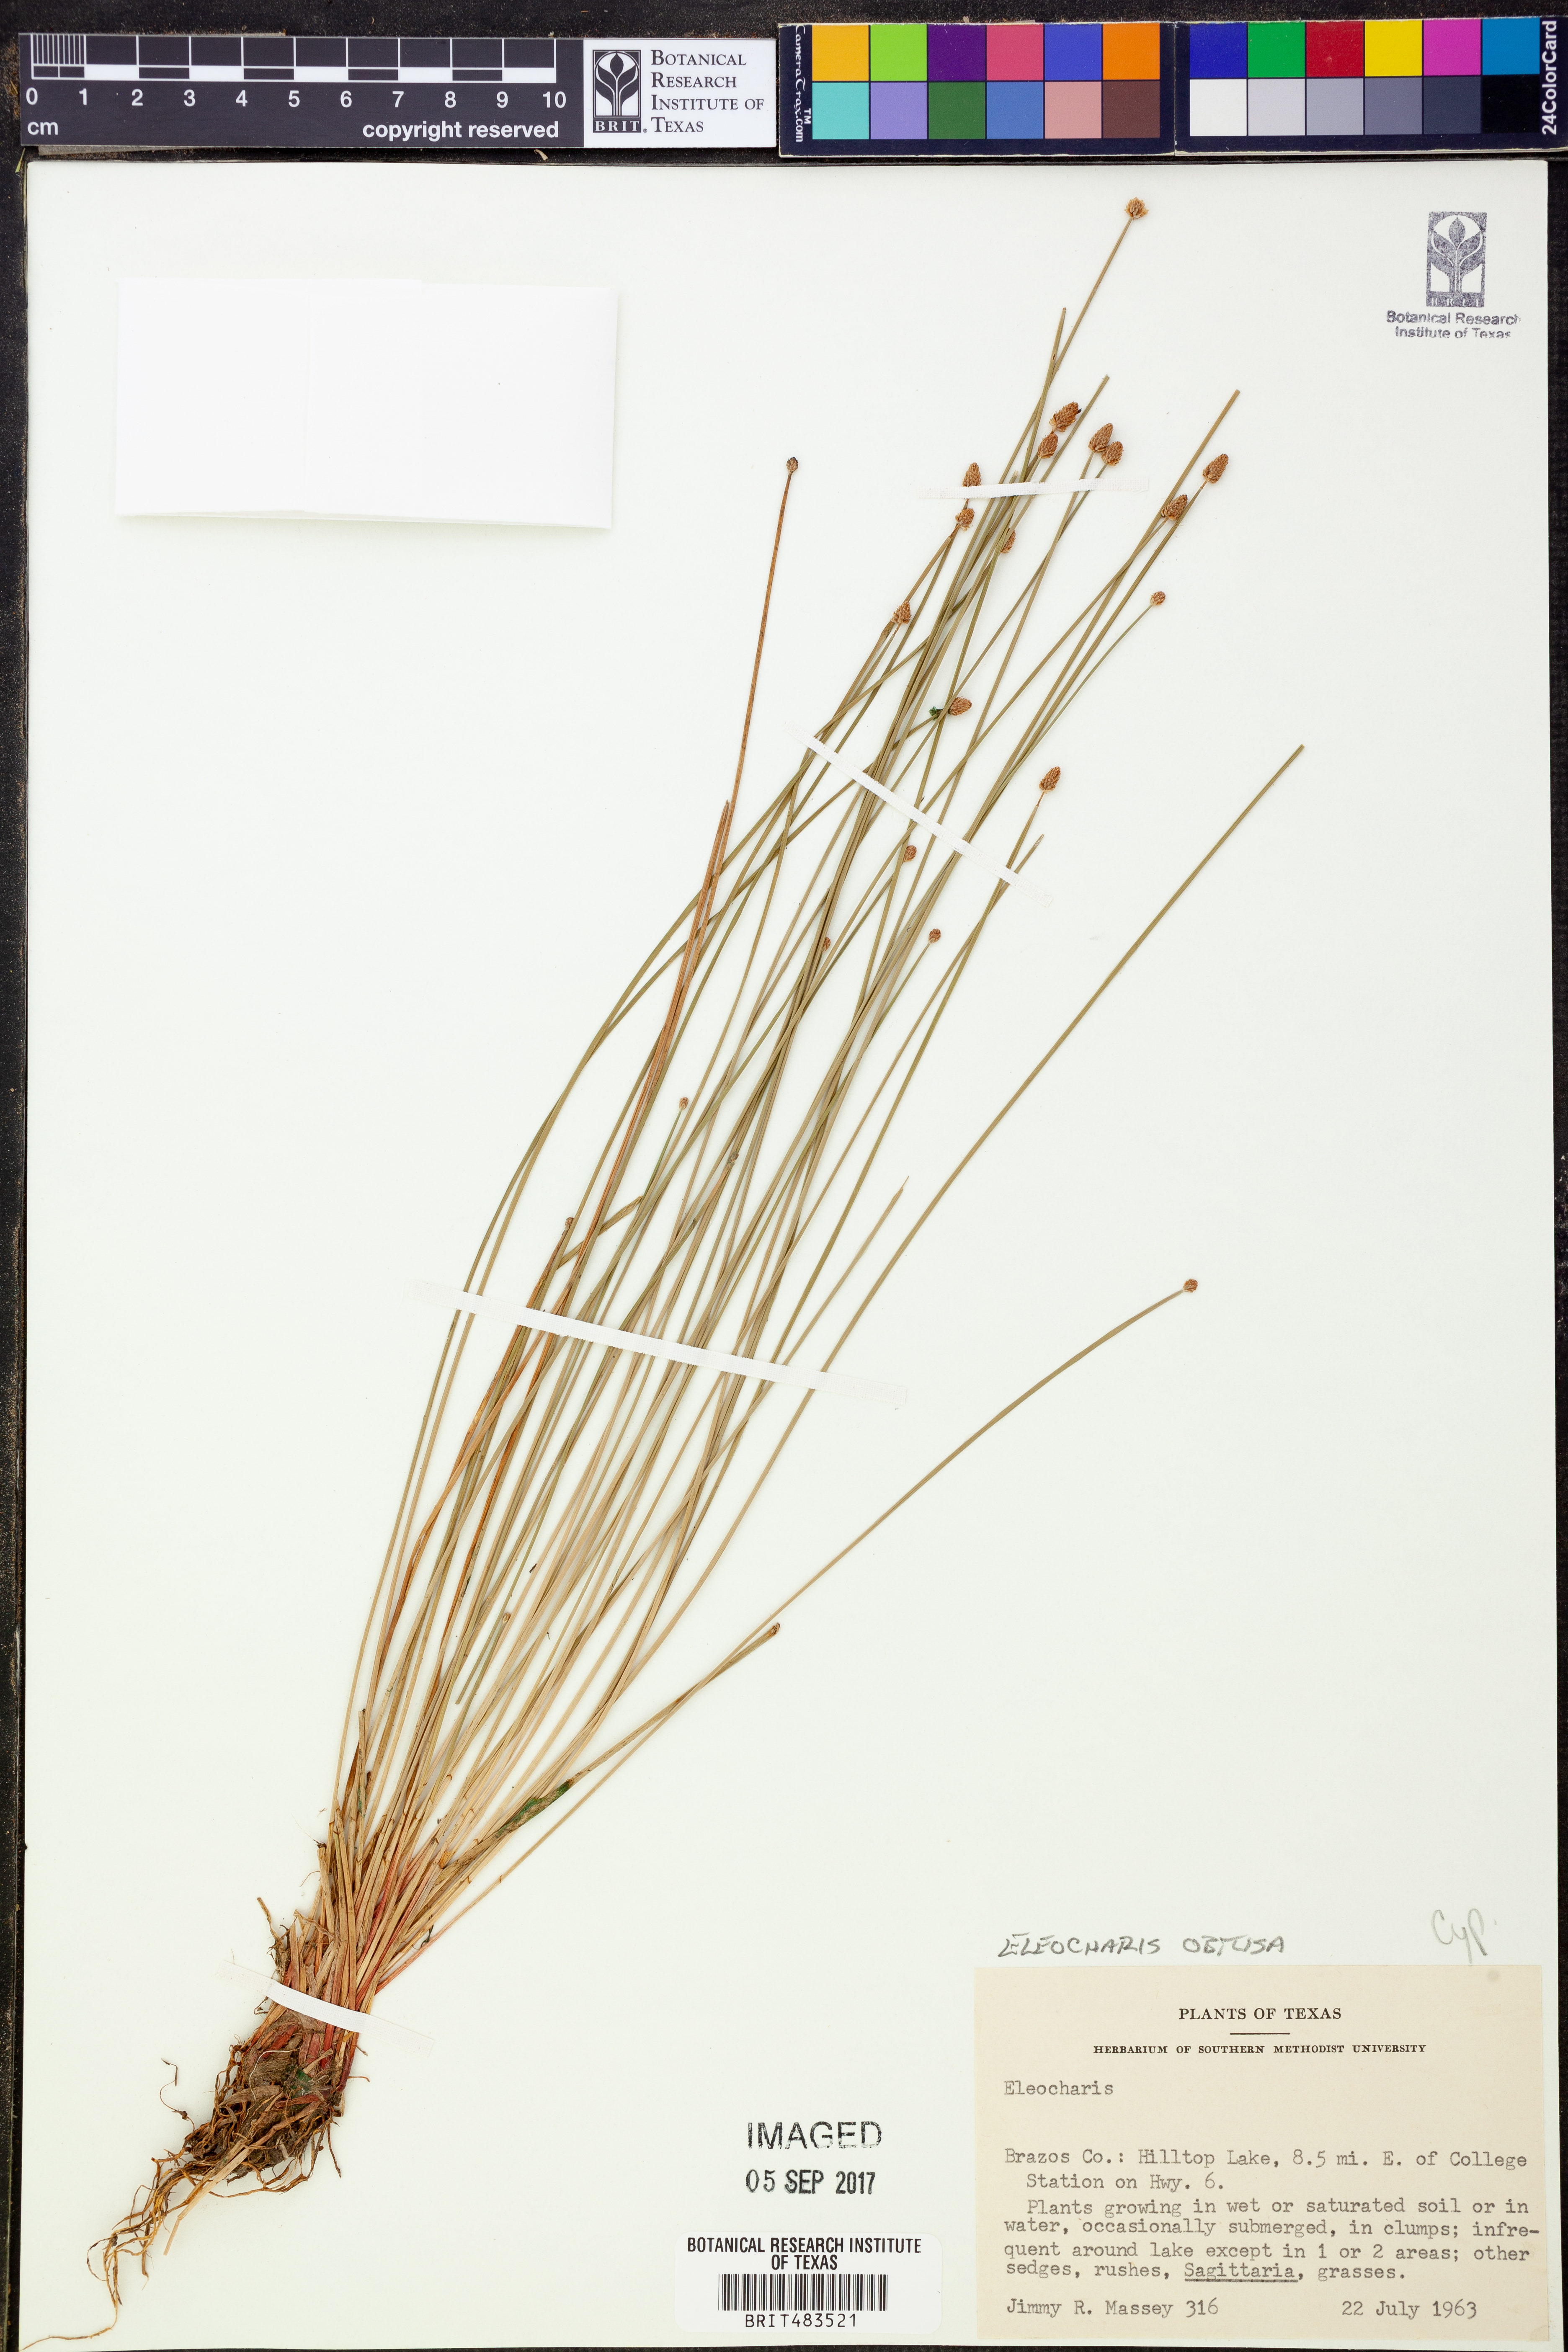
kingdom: Plantae
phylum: Tracheophyta
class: Liliopsida
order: Poales
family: Cyperaceae
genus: Eleocharis
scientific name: Eleocharis obtusa
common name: Blunt spikerush
